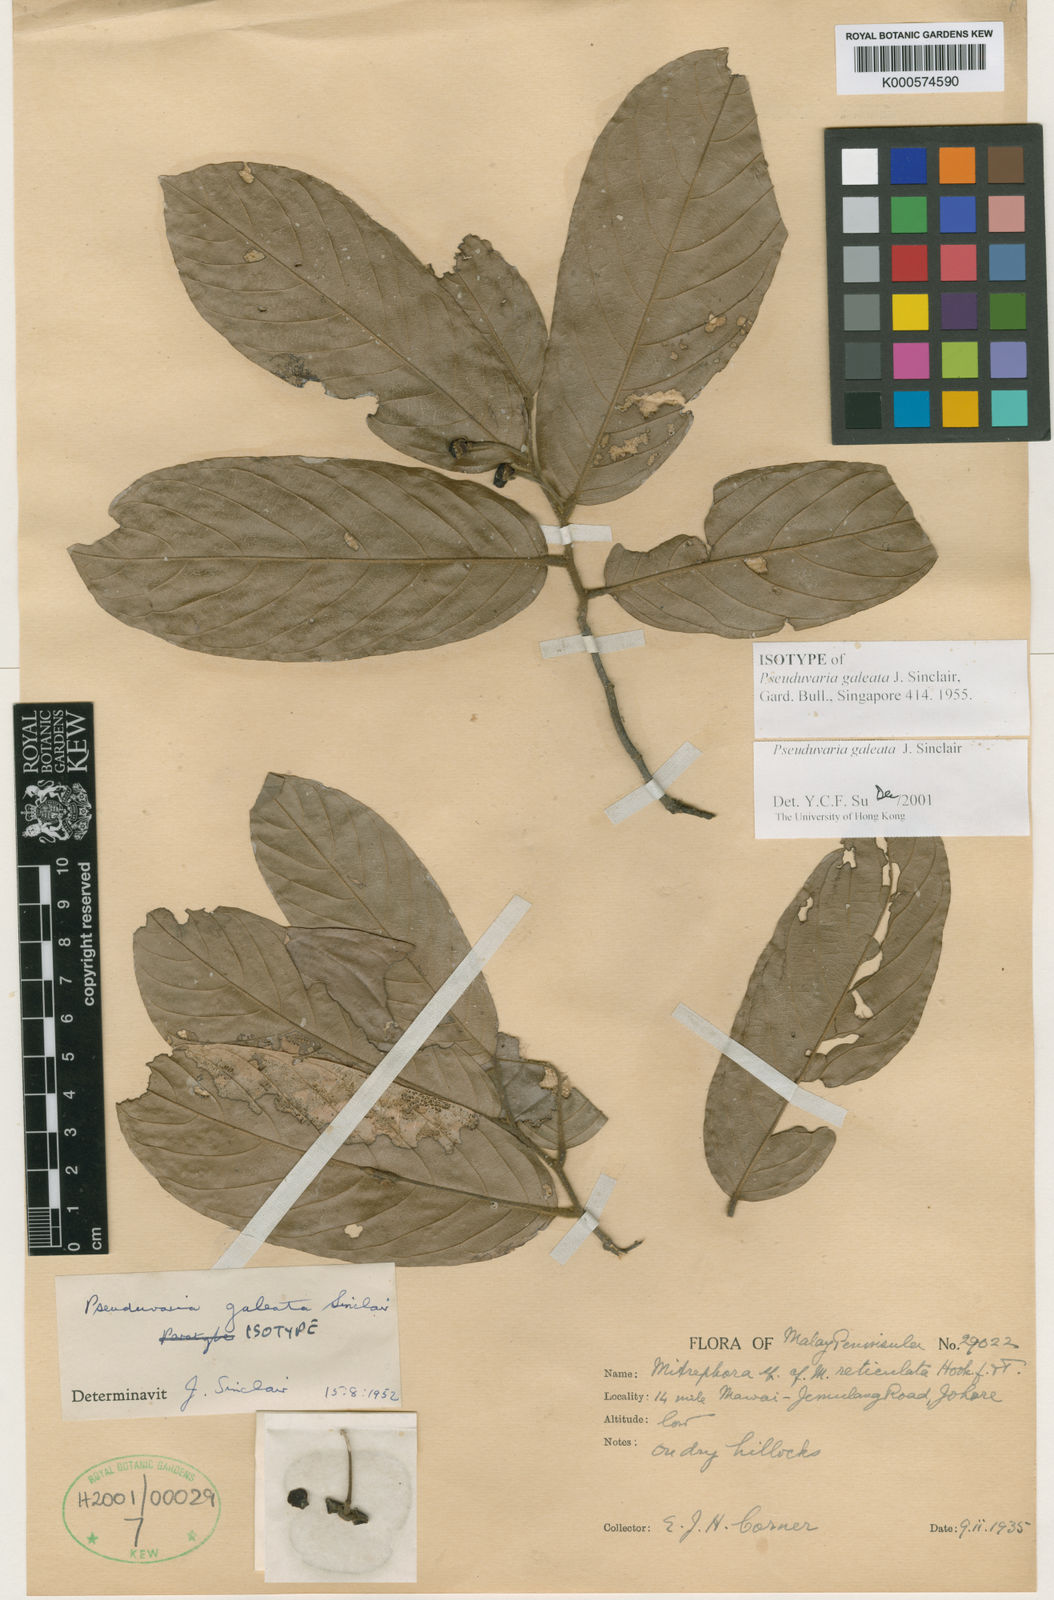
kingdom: Plantae
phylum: Tracheophyta
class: Magnoliopsida
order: Magnoliales
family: Annonaceae
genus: Pseuduvaria
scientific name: Pseuduvaria galeata
